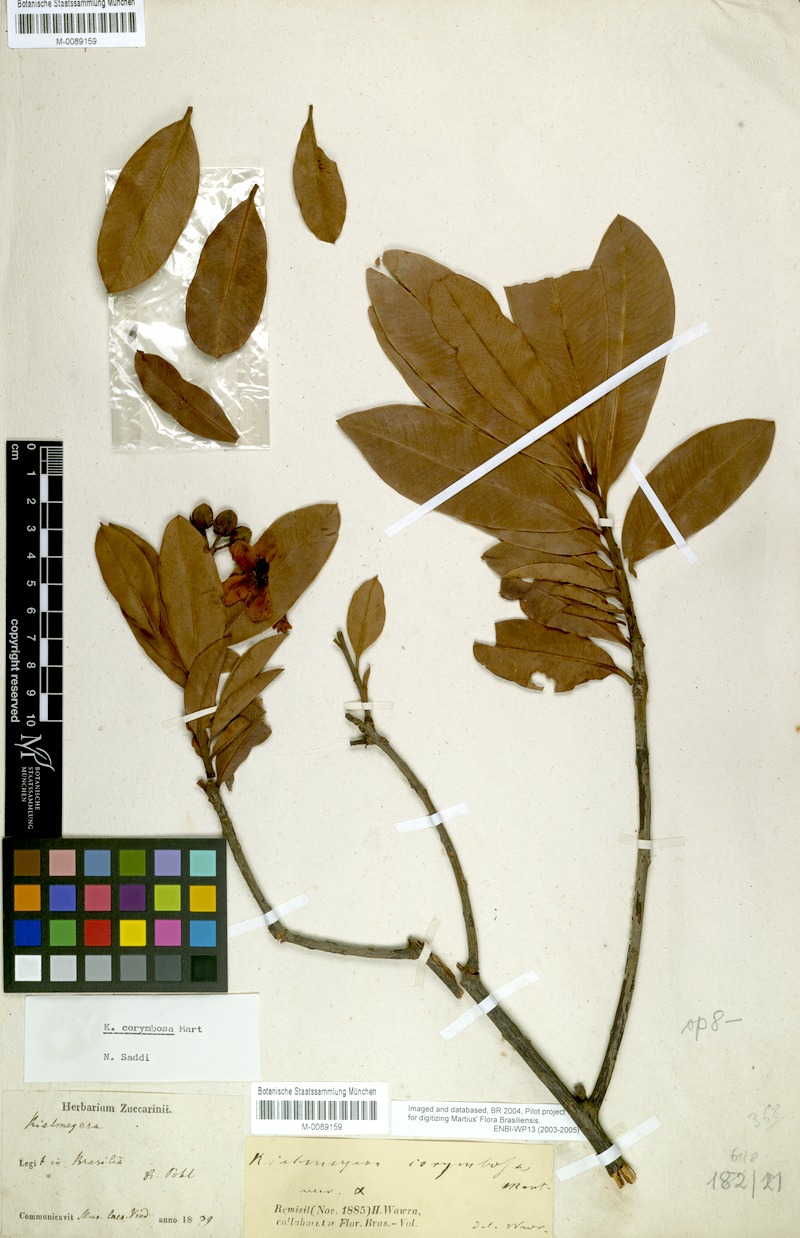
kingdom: Plantae
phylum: Tracheophyta
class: Magnoliopsida
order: Malpighiales
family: Calophyllaceae
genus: Kielmeyera
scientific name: Kielmeyera corymbosa
